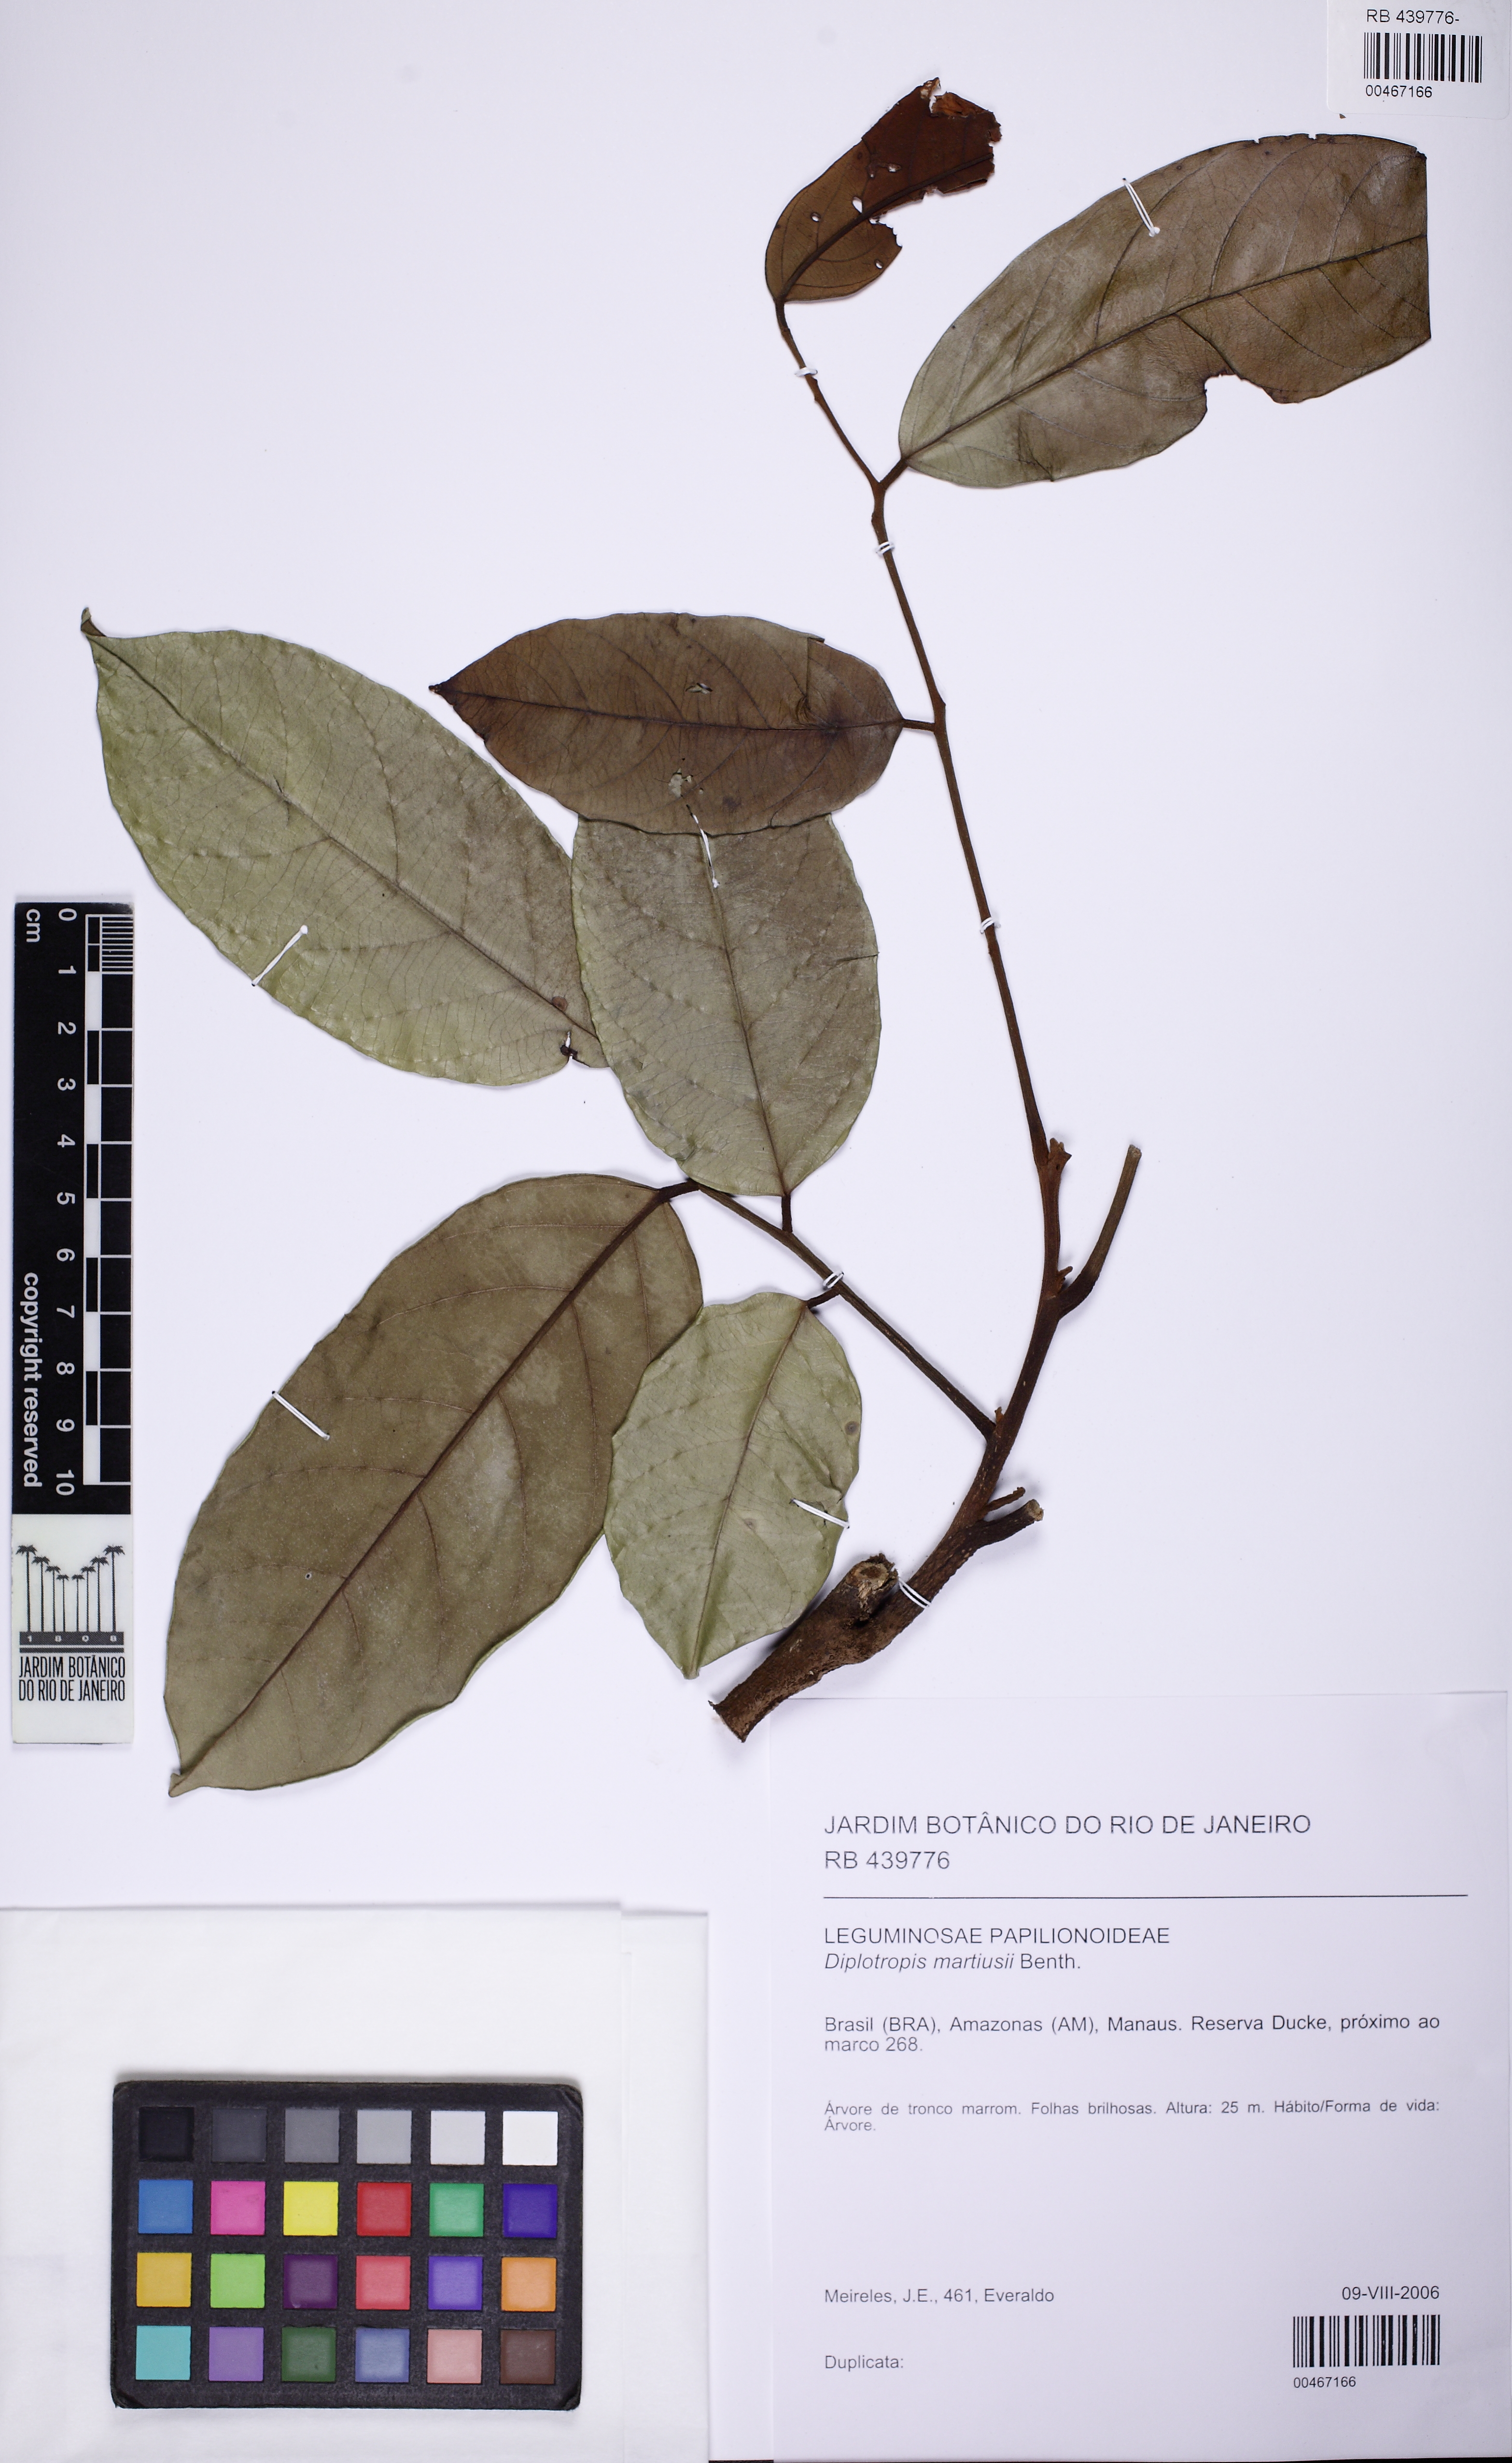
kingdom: Plantae
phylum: Tracheophyta
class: Magnoliopsida
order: Fabales
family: Fabaceae
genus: Diplotropis
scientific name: Diplotropis martiusii
